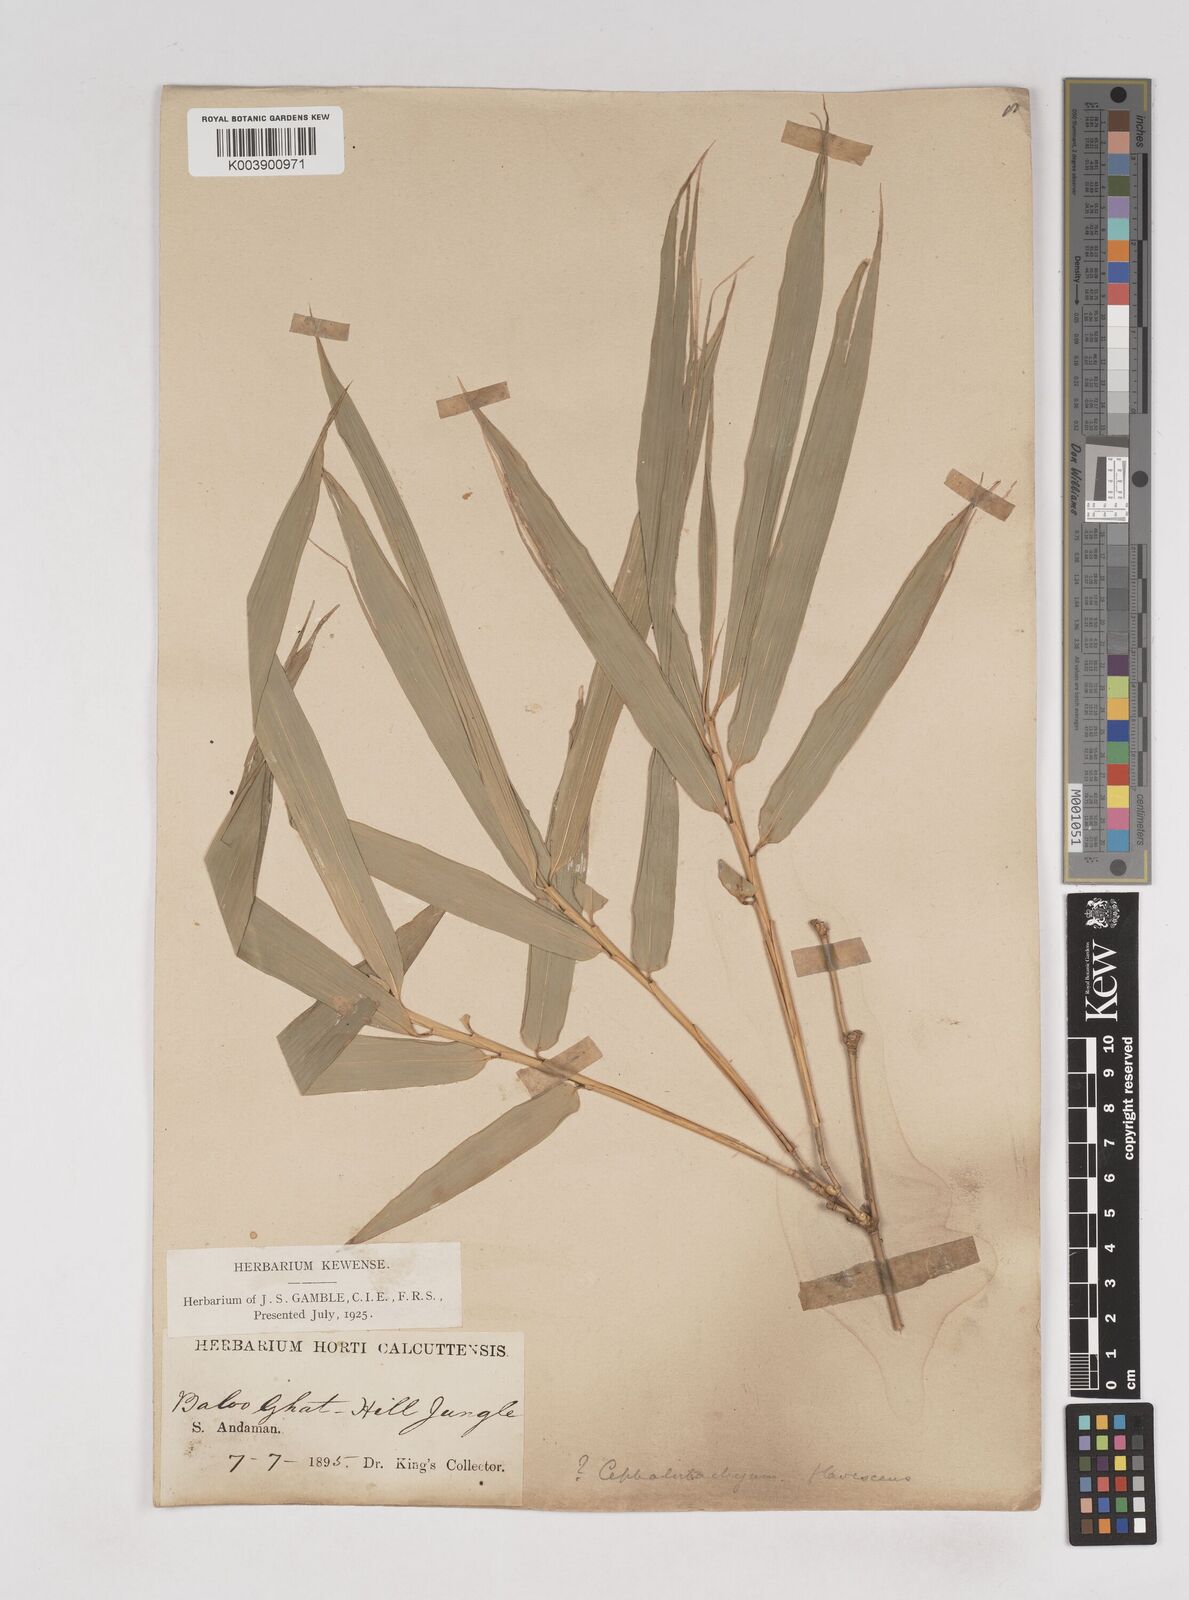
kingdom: Plantae
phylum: Tracheophyta
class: Liliopsida
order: Poales
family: Poaceae
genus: Cephalostachyum
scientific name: Cephalostachyum flavescens
